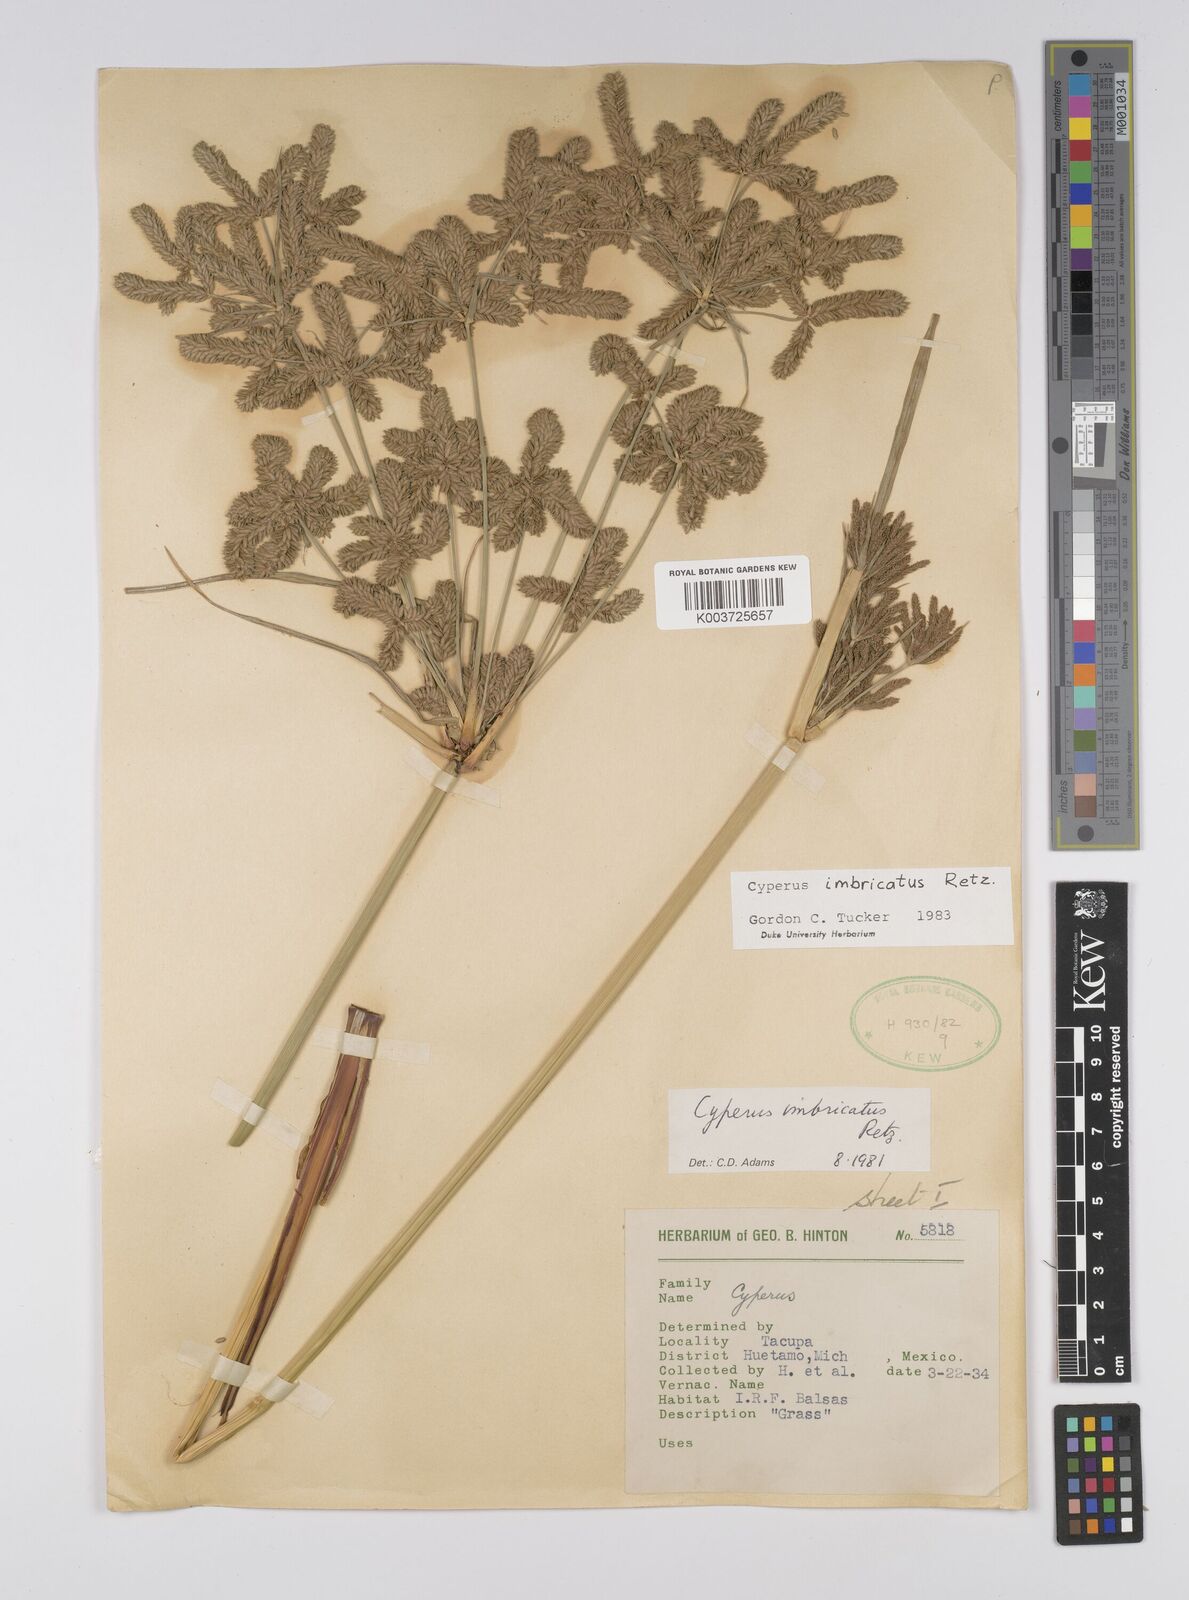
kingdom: Plantae
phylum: Tracheophyta
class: Liliopsida
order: Poales
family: Cyperaceae
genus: Cyperus
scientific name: Cyperus imbricatus
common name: Shingle flatsedge
